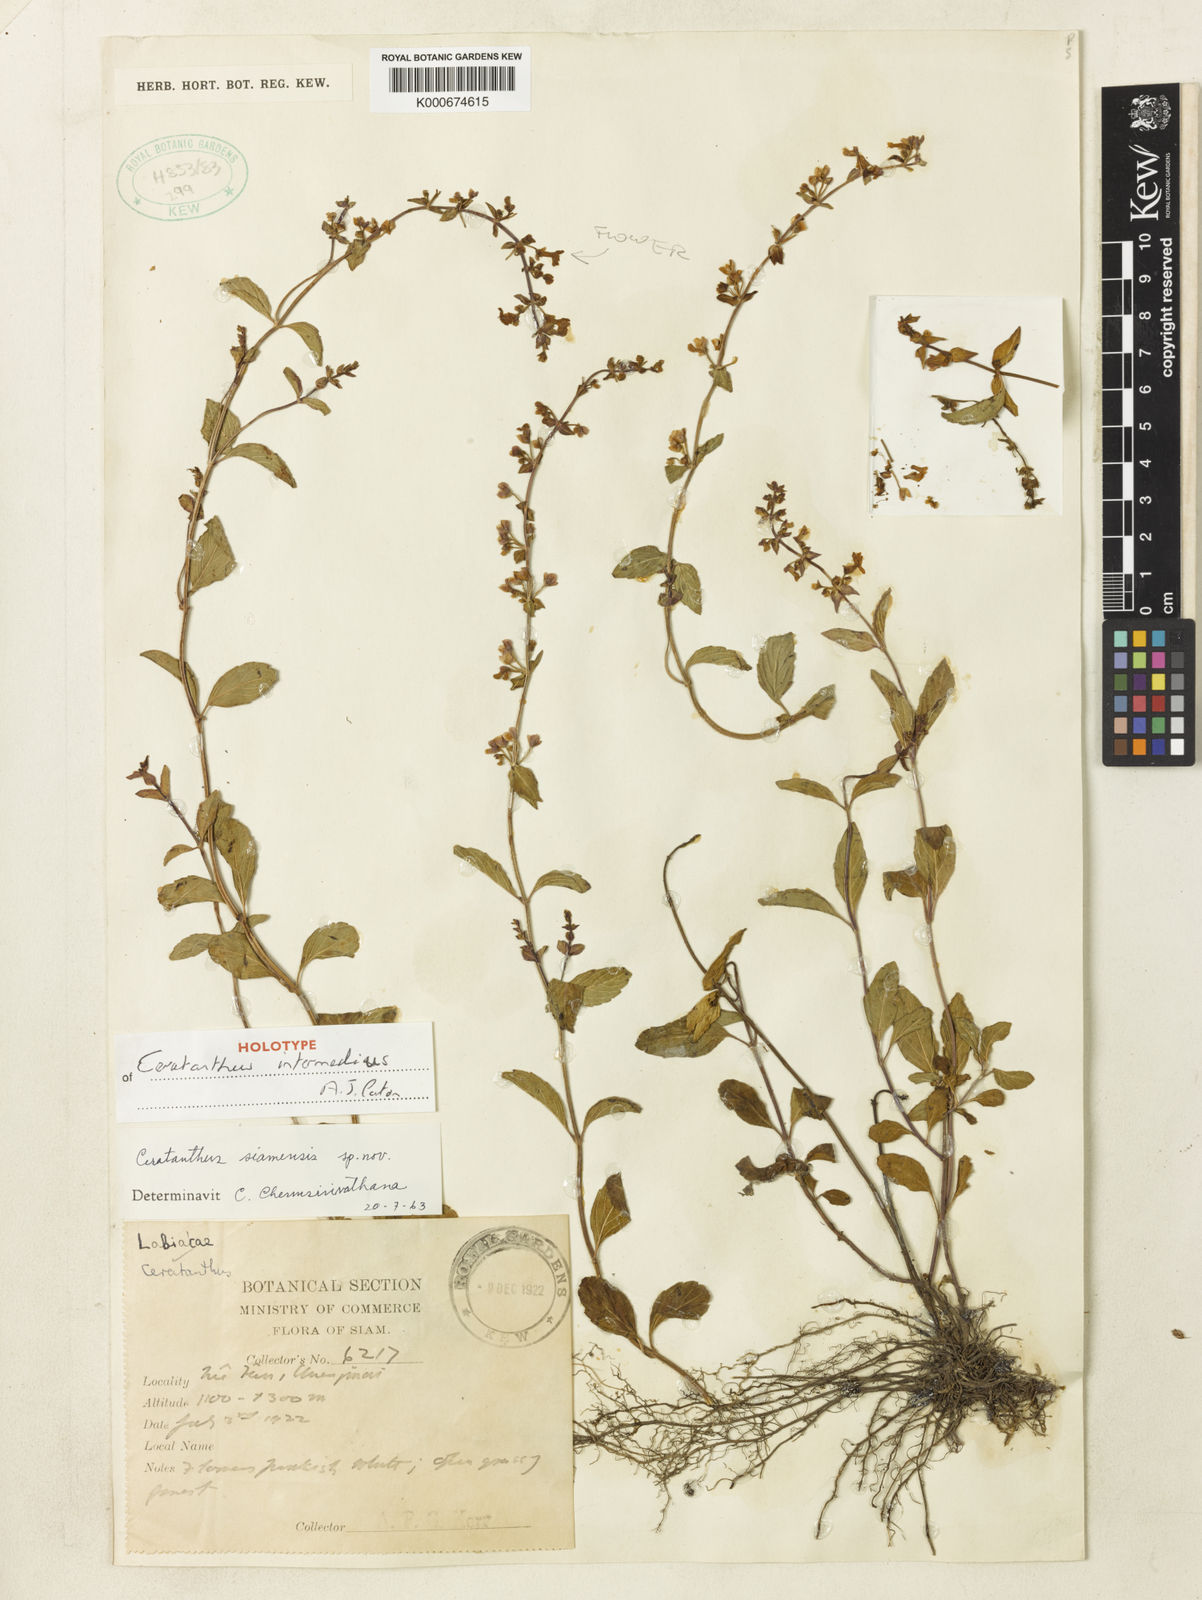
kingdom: Plantae
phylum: Tracheophyta
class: Magnoliopsida
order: Lamiales
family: Lamiaceae
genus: Platostoma
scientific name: Platostoma intermedium
